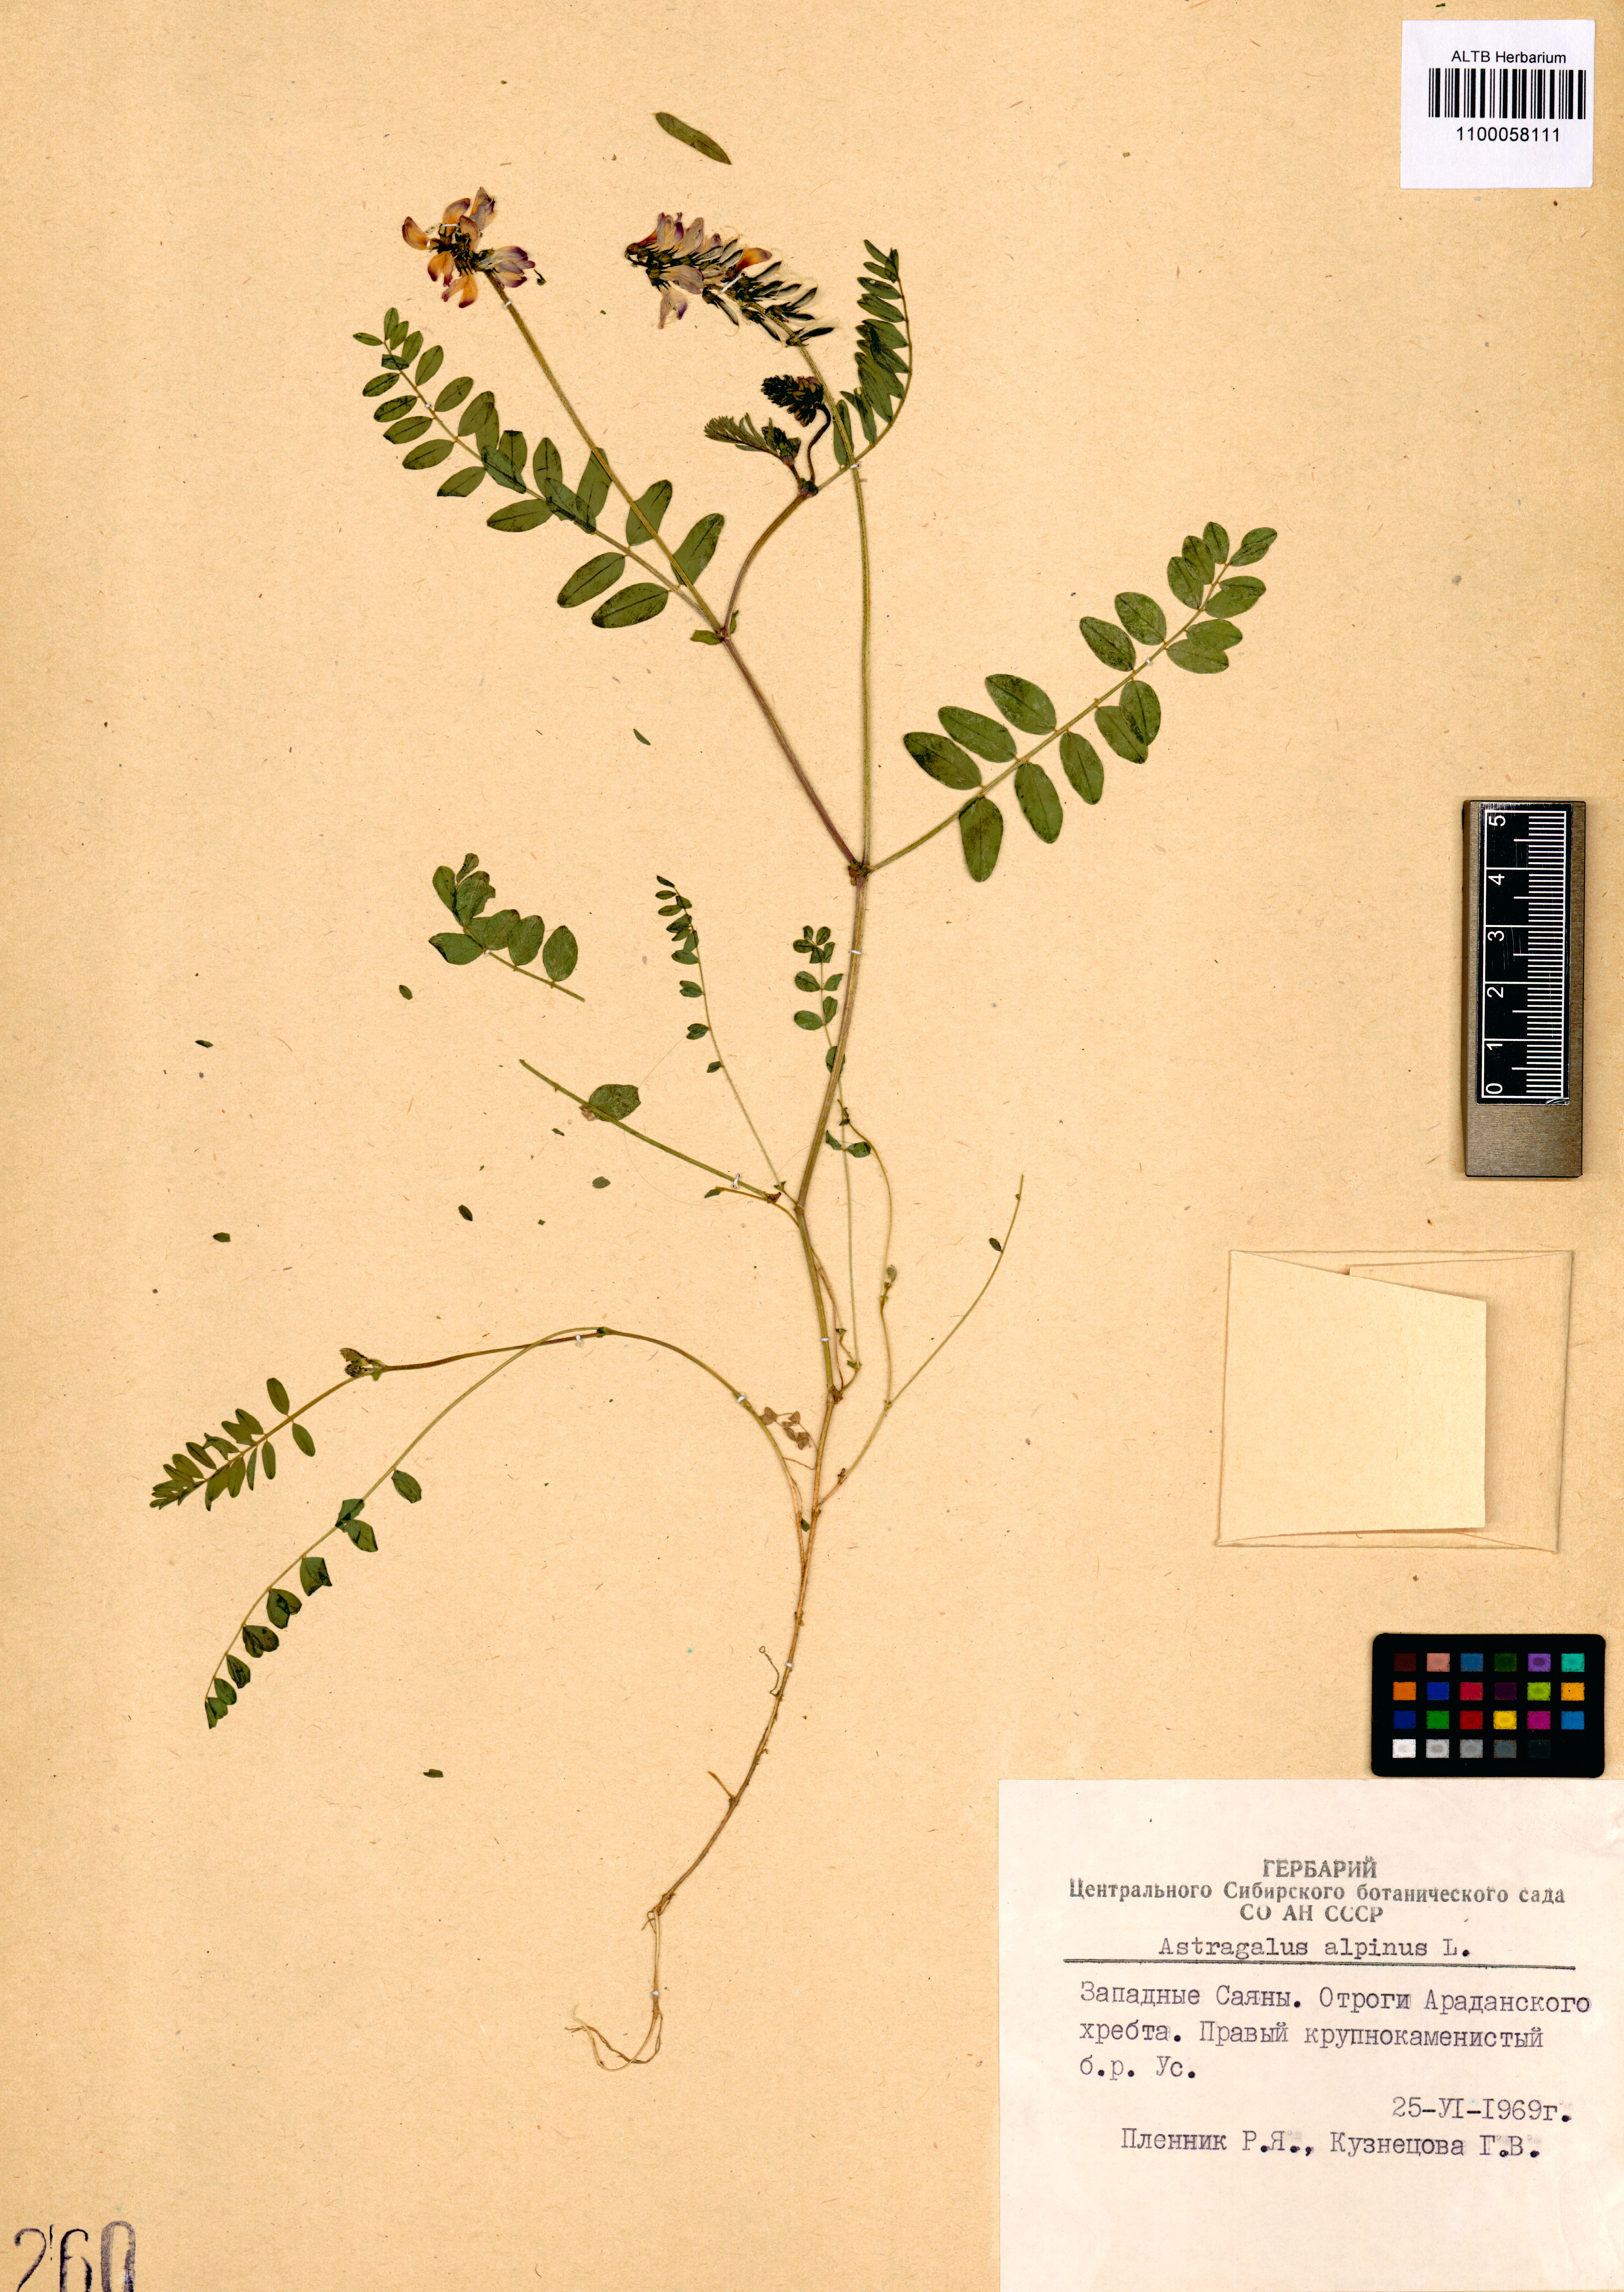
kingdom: Plantae
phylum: Tracheophyta
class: Magnoliopsida
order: Fabales
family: Fabaceae
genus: Astragalus
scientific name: Astragalus alpinus
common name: Alpine milk-vetch
